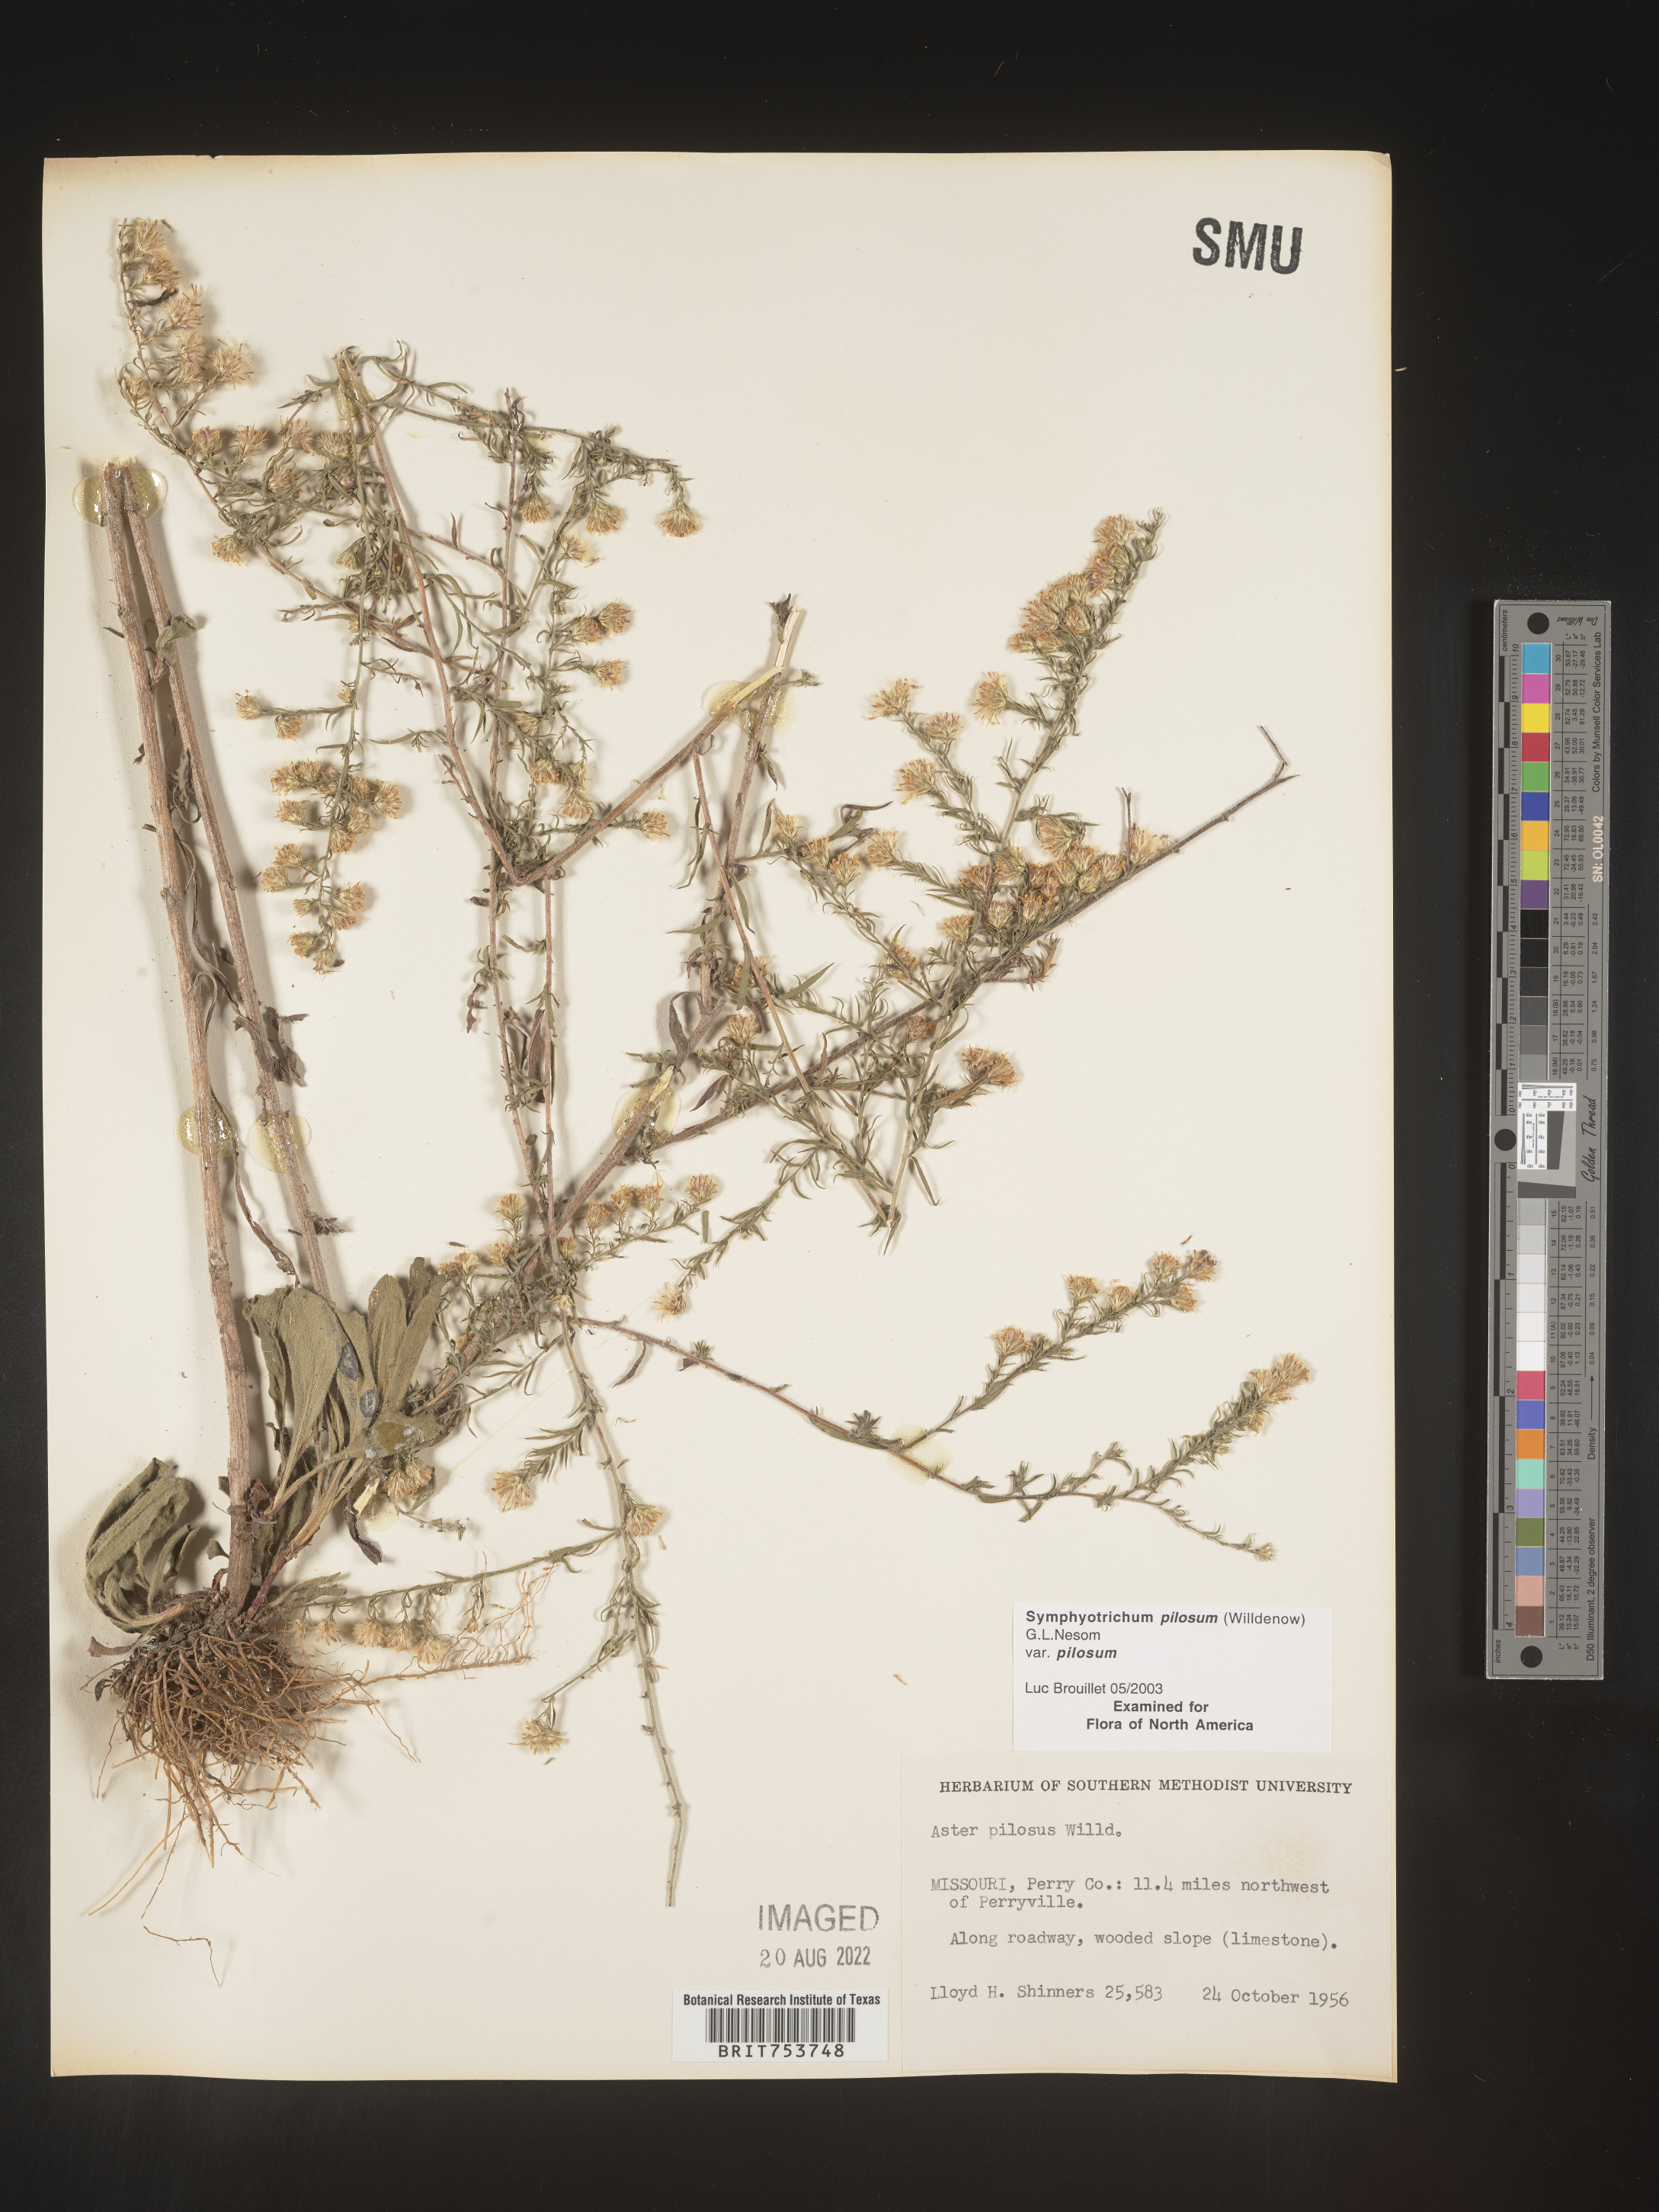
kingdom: Plantae
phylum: Tracheophyta
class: Magnoliopsida
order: Asterales
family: Asteraceae
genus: Symphyotrichum
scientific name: Symphyotrichum pilosum
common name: Awl aster
